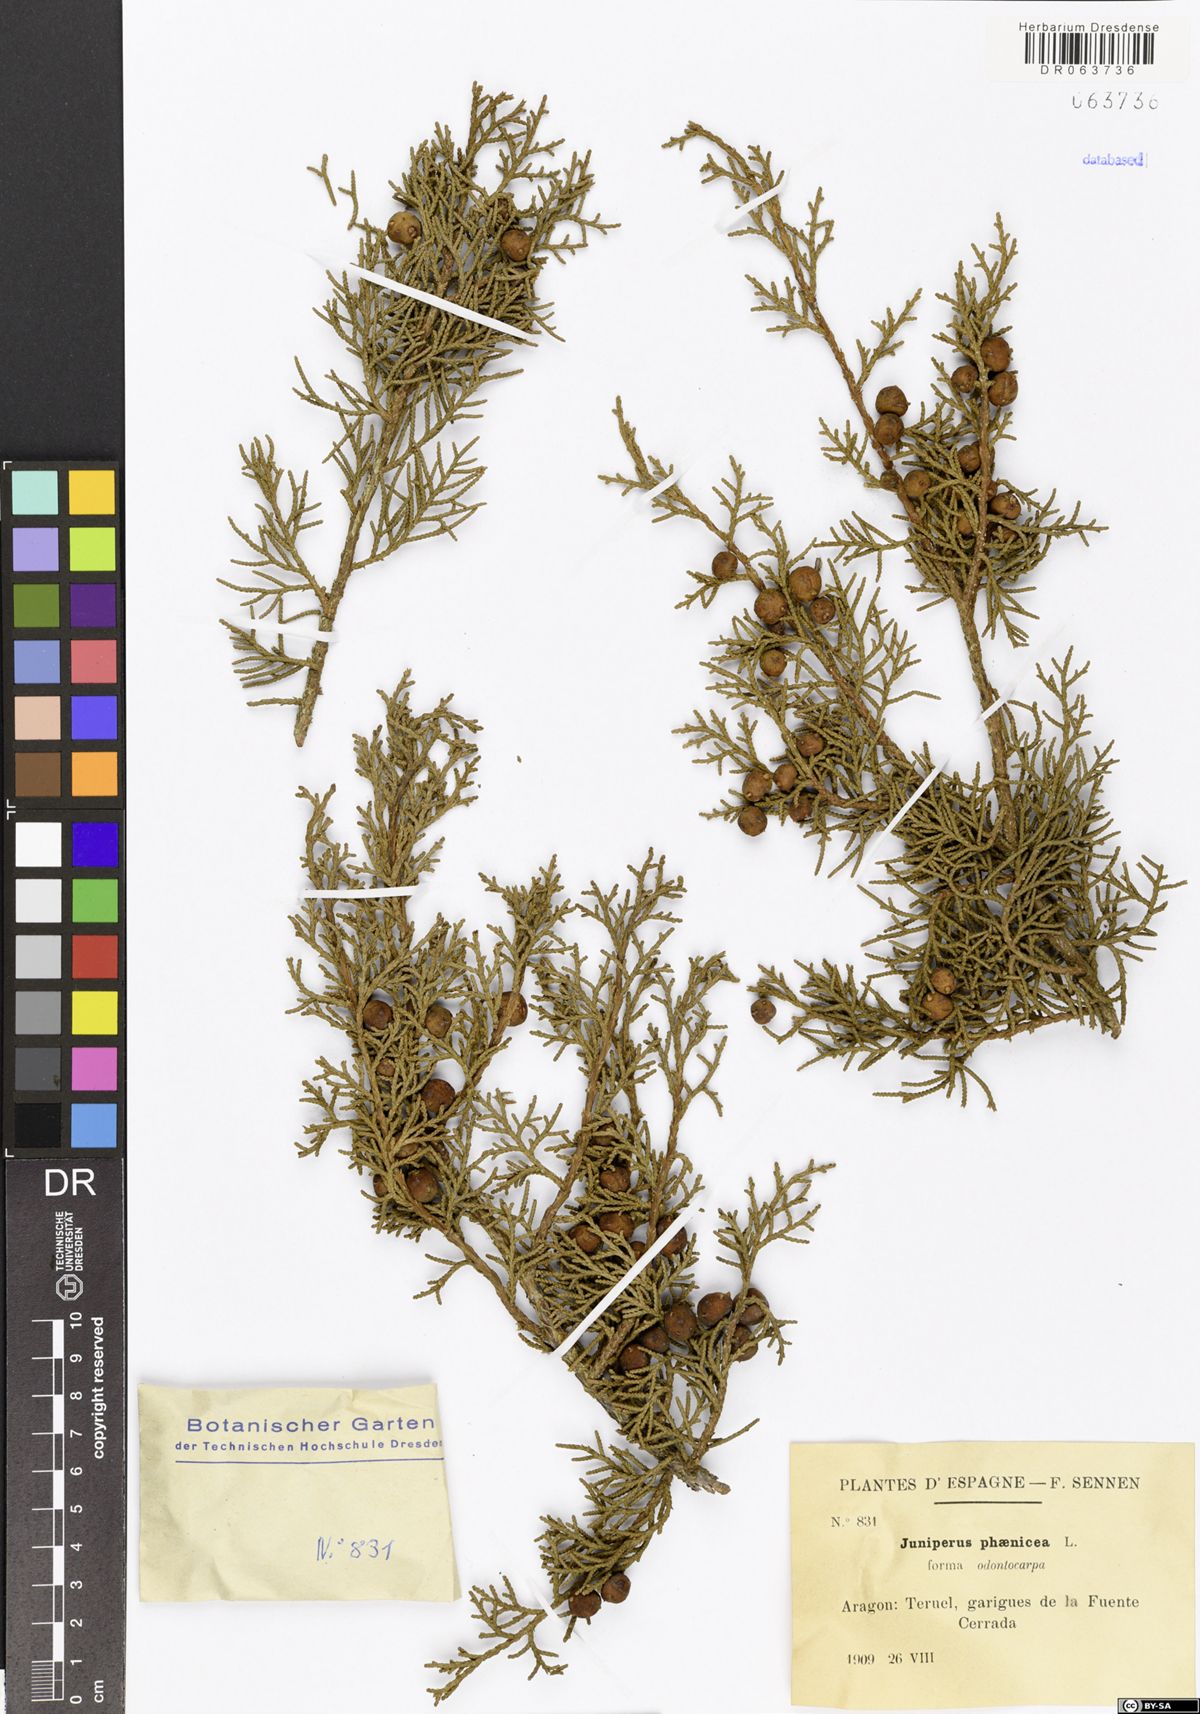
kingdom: Plantae
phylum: Tracheophyta
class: Pinopsida
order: Pinales
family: Cupressaceae
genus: Juniperus
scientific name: Juniperus phoenicea
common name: Phoenician juniper
